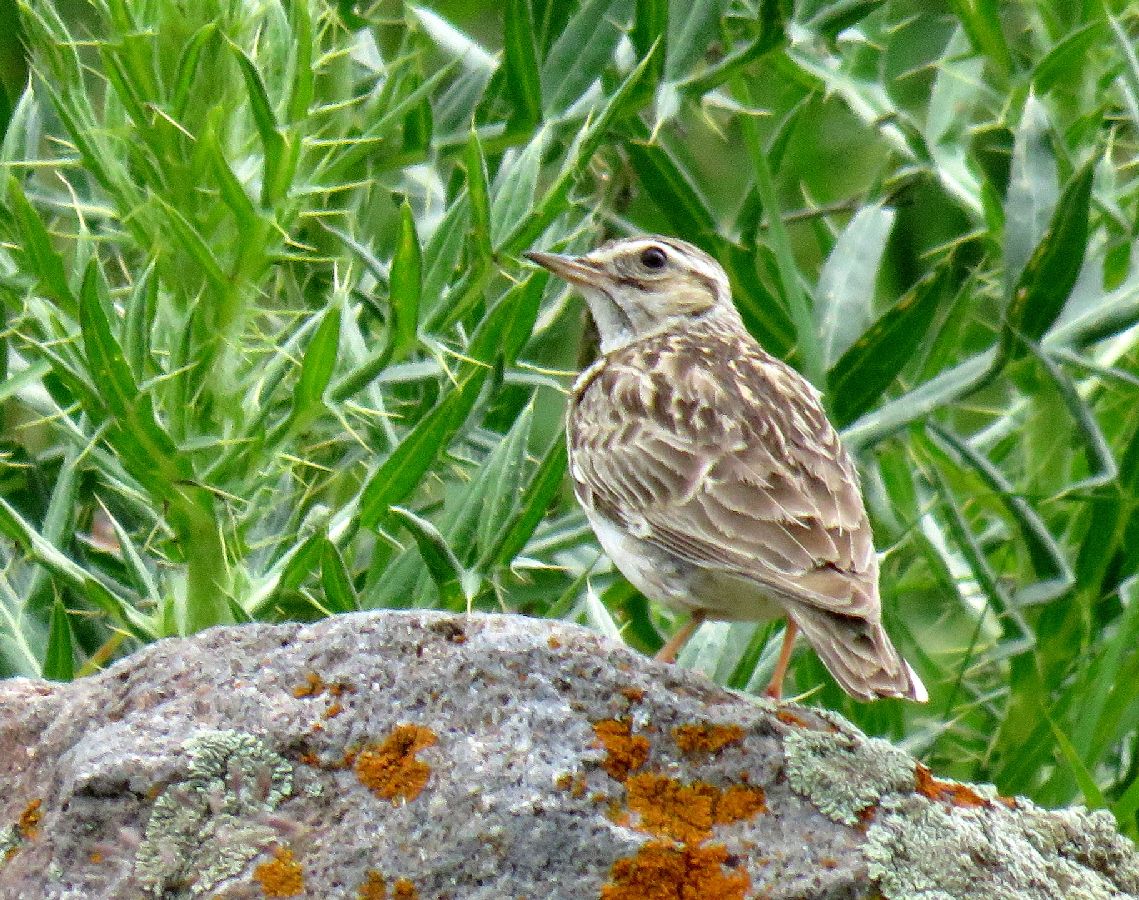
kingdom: Animalia
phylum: Chordata
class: Aves
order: Passeriformes
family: Alaudidae
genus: Lullula
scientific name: Lullula arborea
